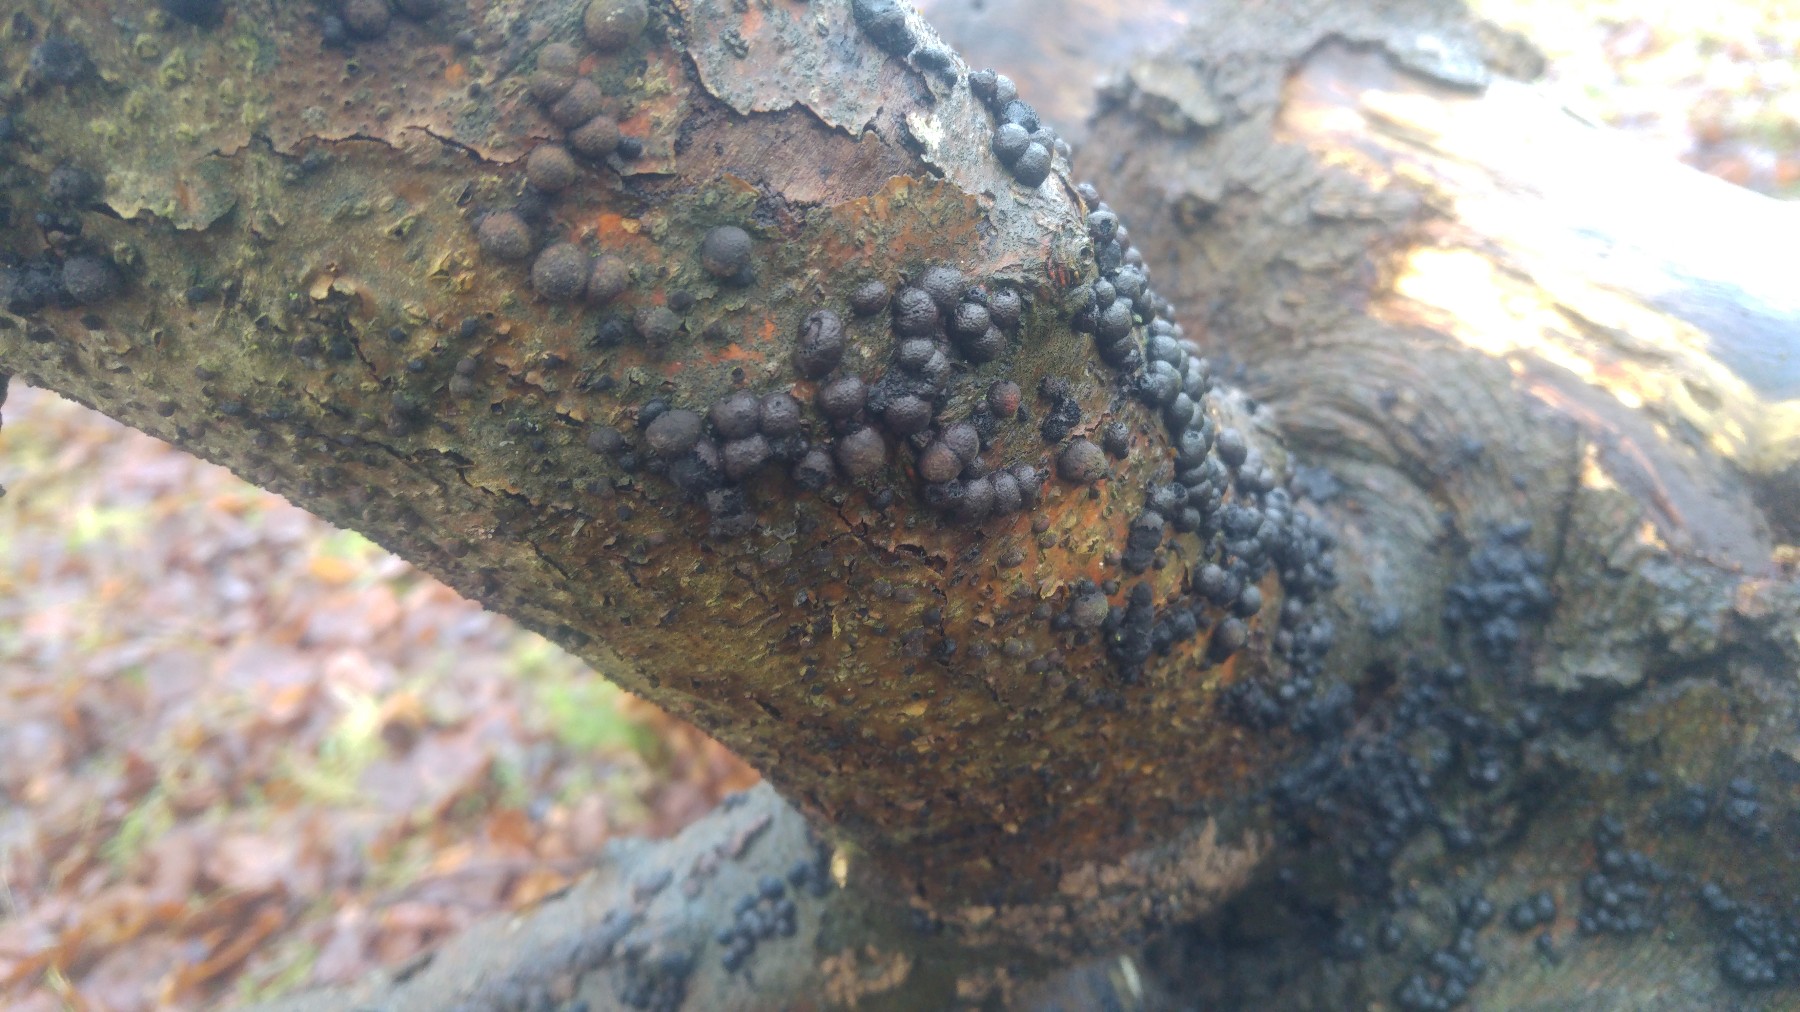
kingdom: Fungi
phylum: Ascomycota
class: Sordariomycetes
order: Xylariales
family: Hypoxylaceae
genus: Hypoxylon
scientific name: Hypoxylon fragiforme
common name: kuljordbær
